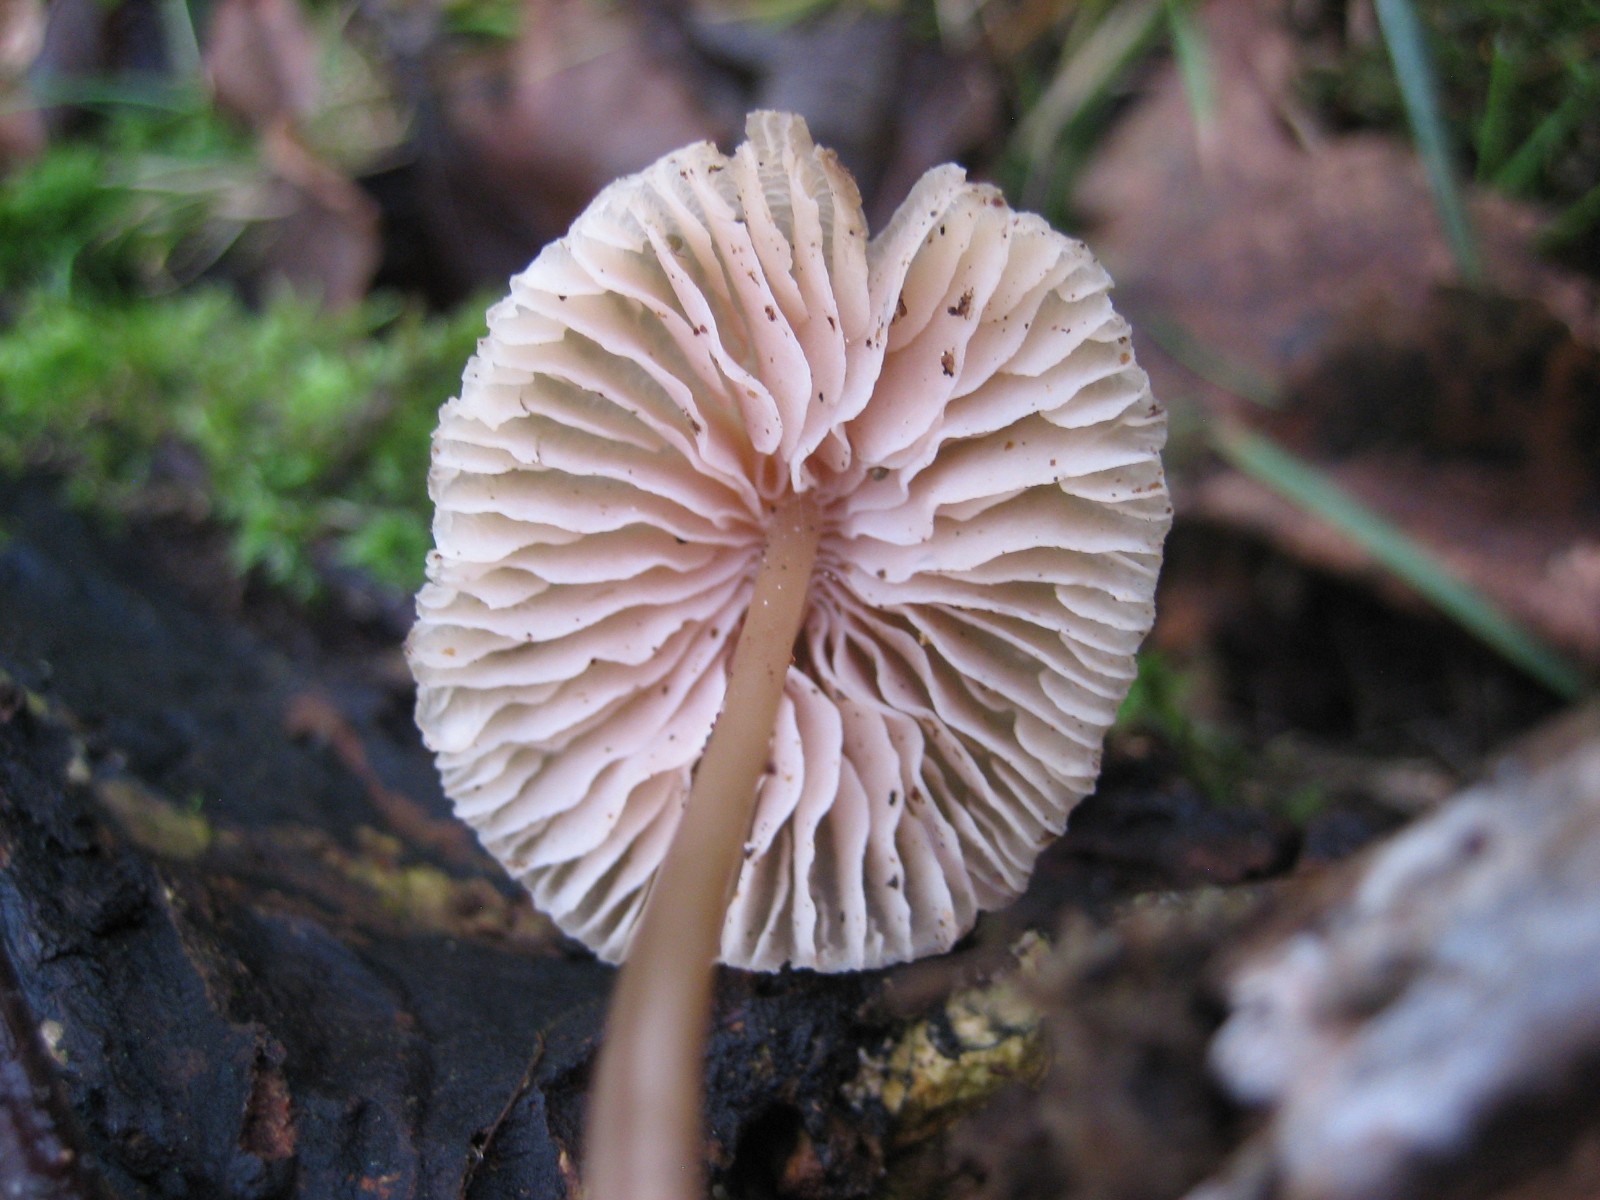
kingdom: Fungi
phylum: Basidiomycota
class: Agaricomycetes
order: Agaricales
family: Mycenaceae
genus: Mycena
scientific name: Mycena galericulata
